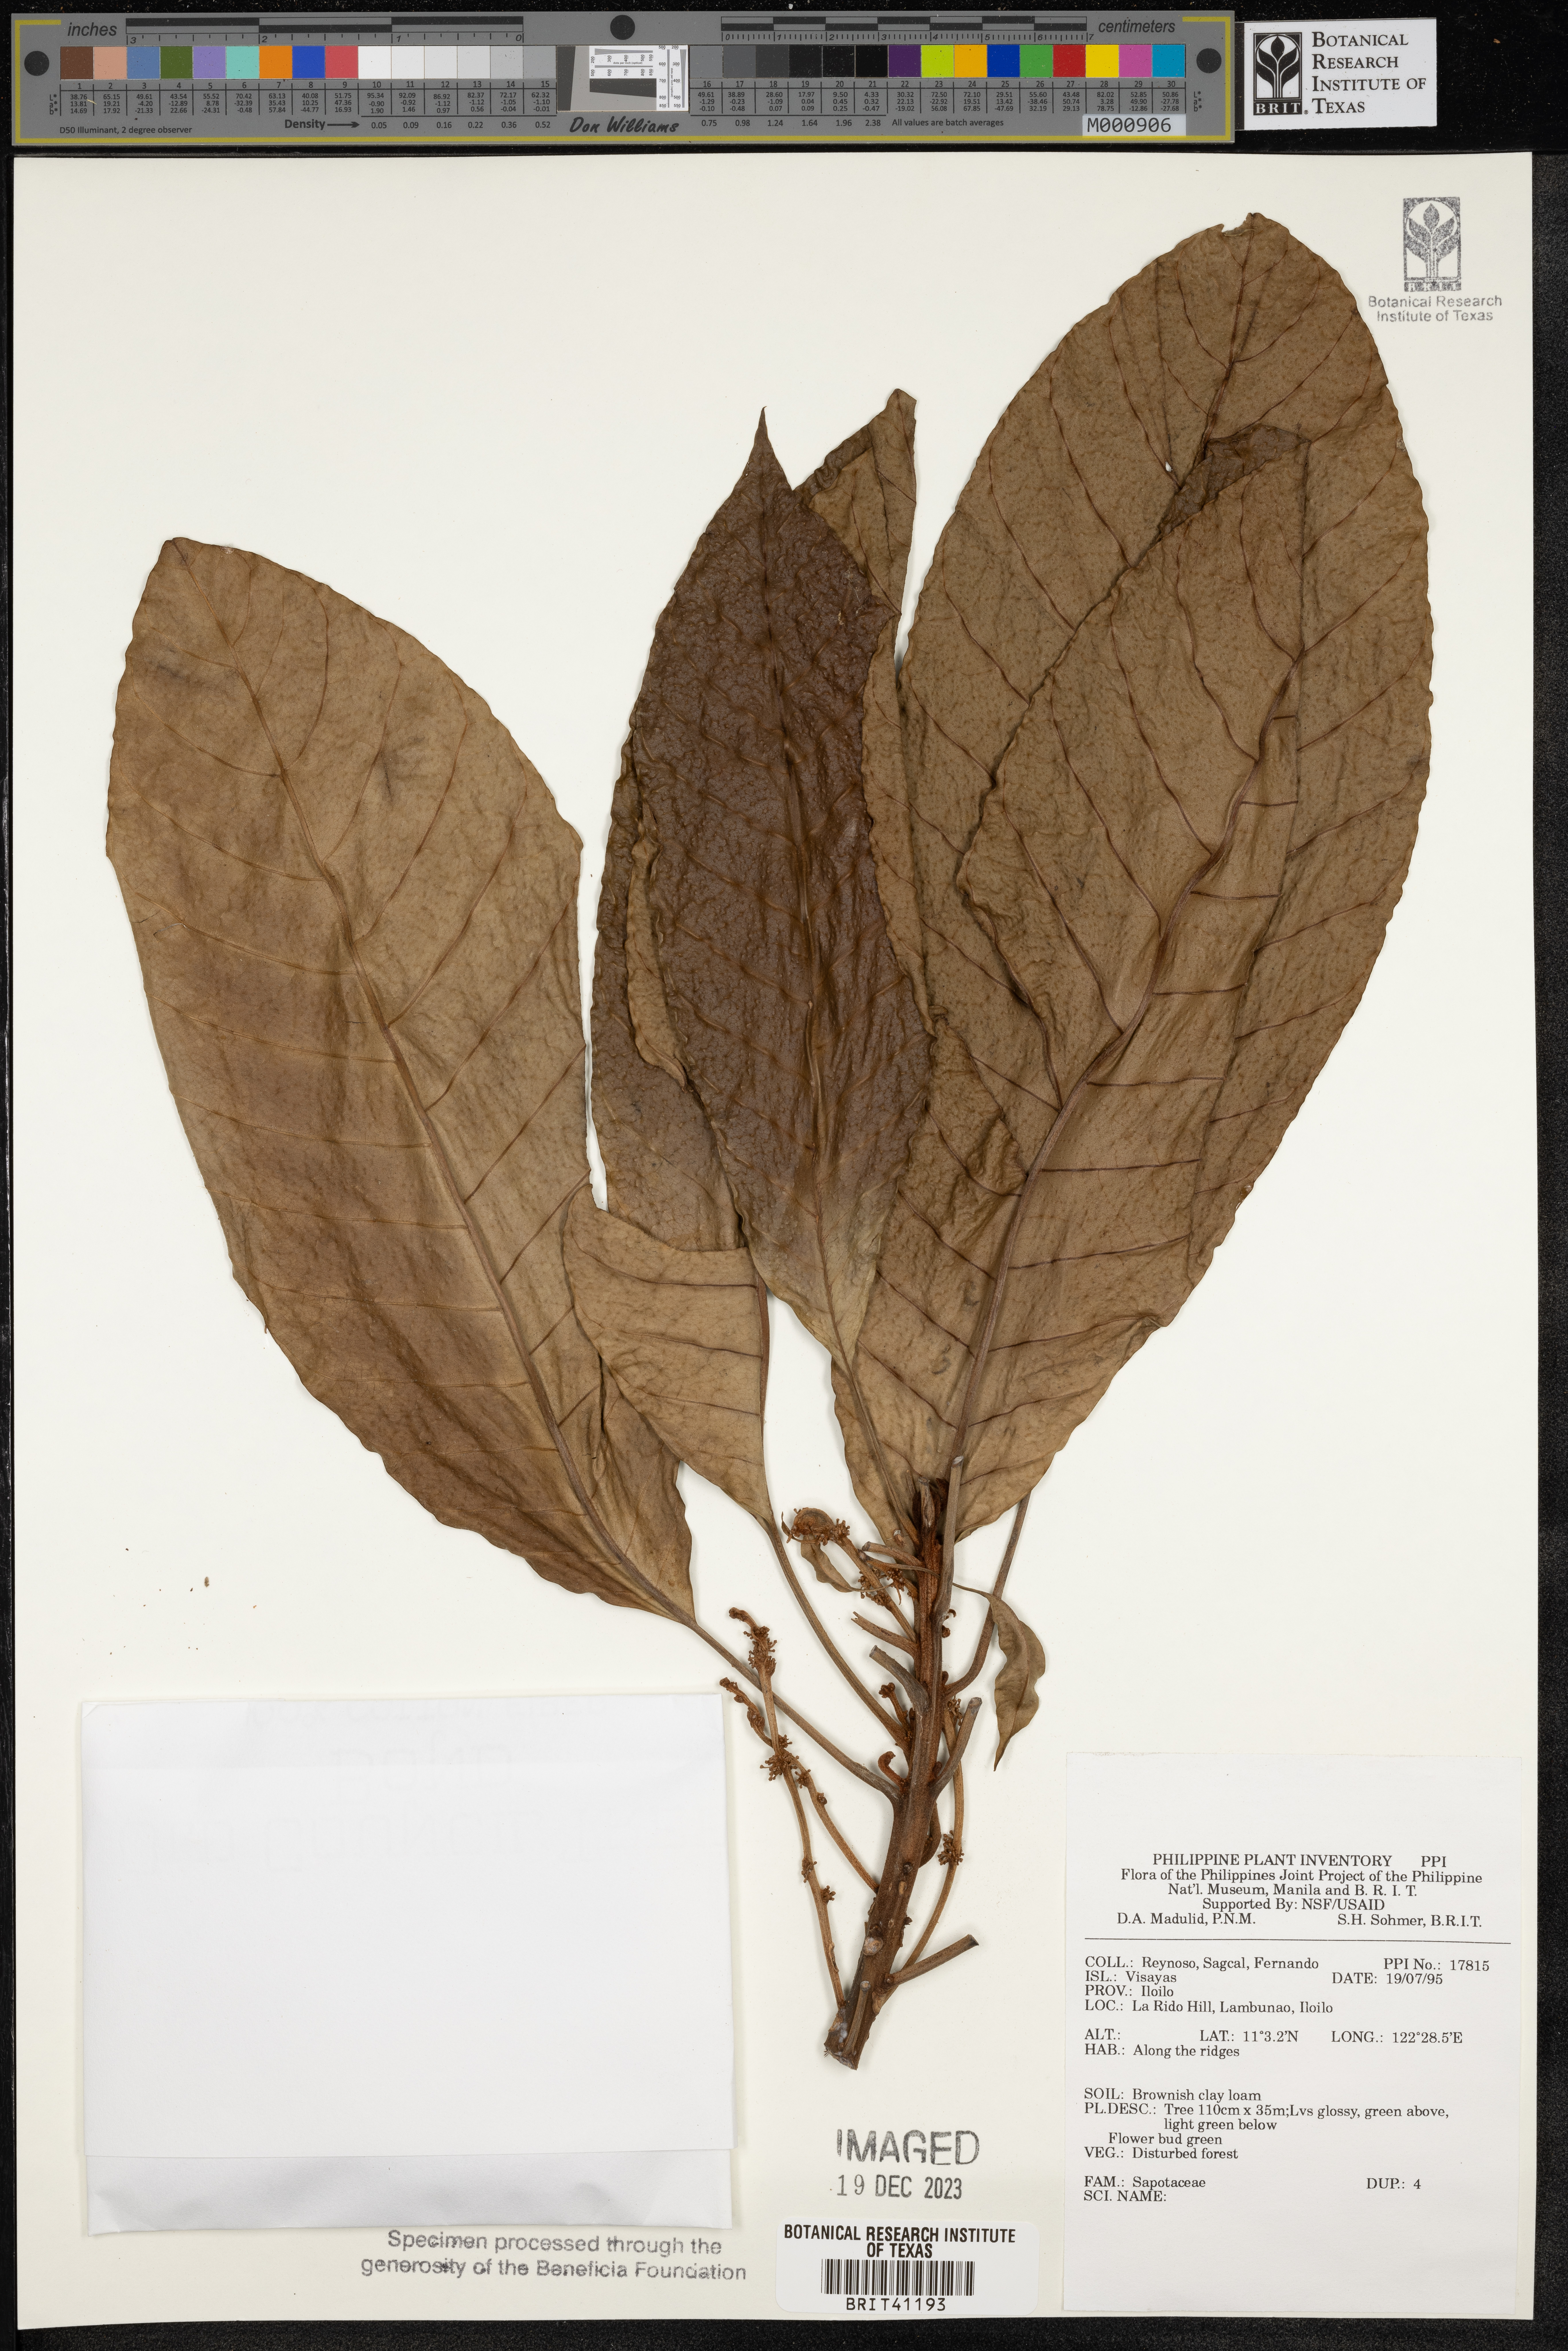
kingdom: Plantae
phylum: Tracheophyta
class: Magnoliopsida
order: Ericales
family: Sapotaceae
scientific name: Sapotaceae
